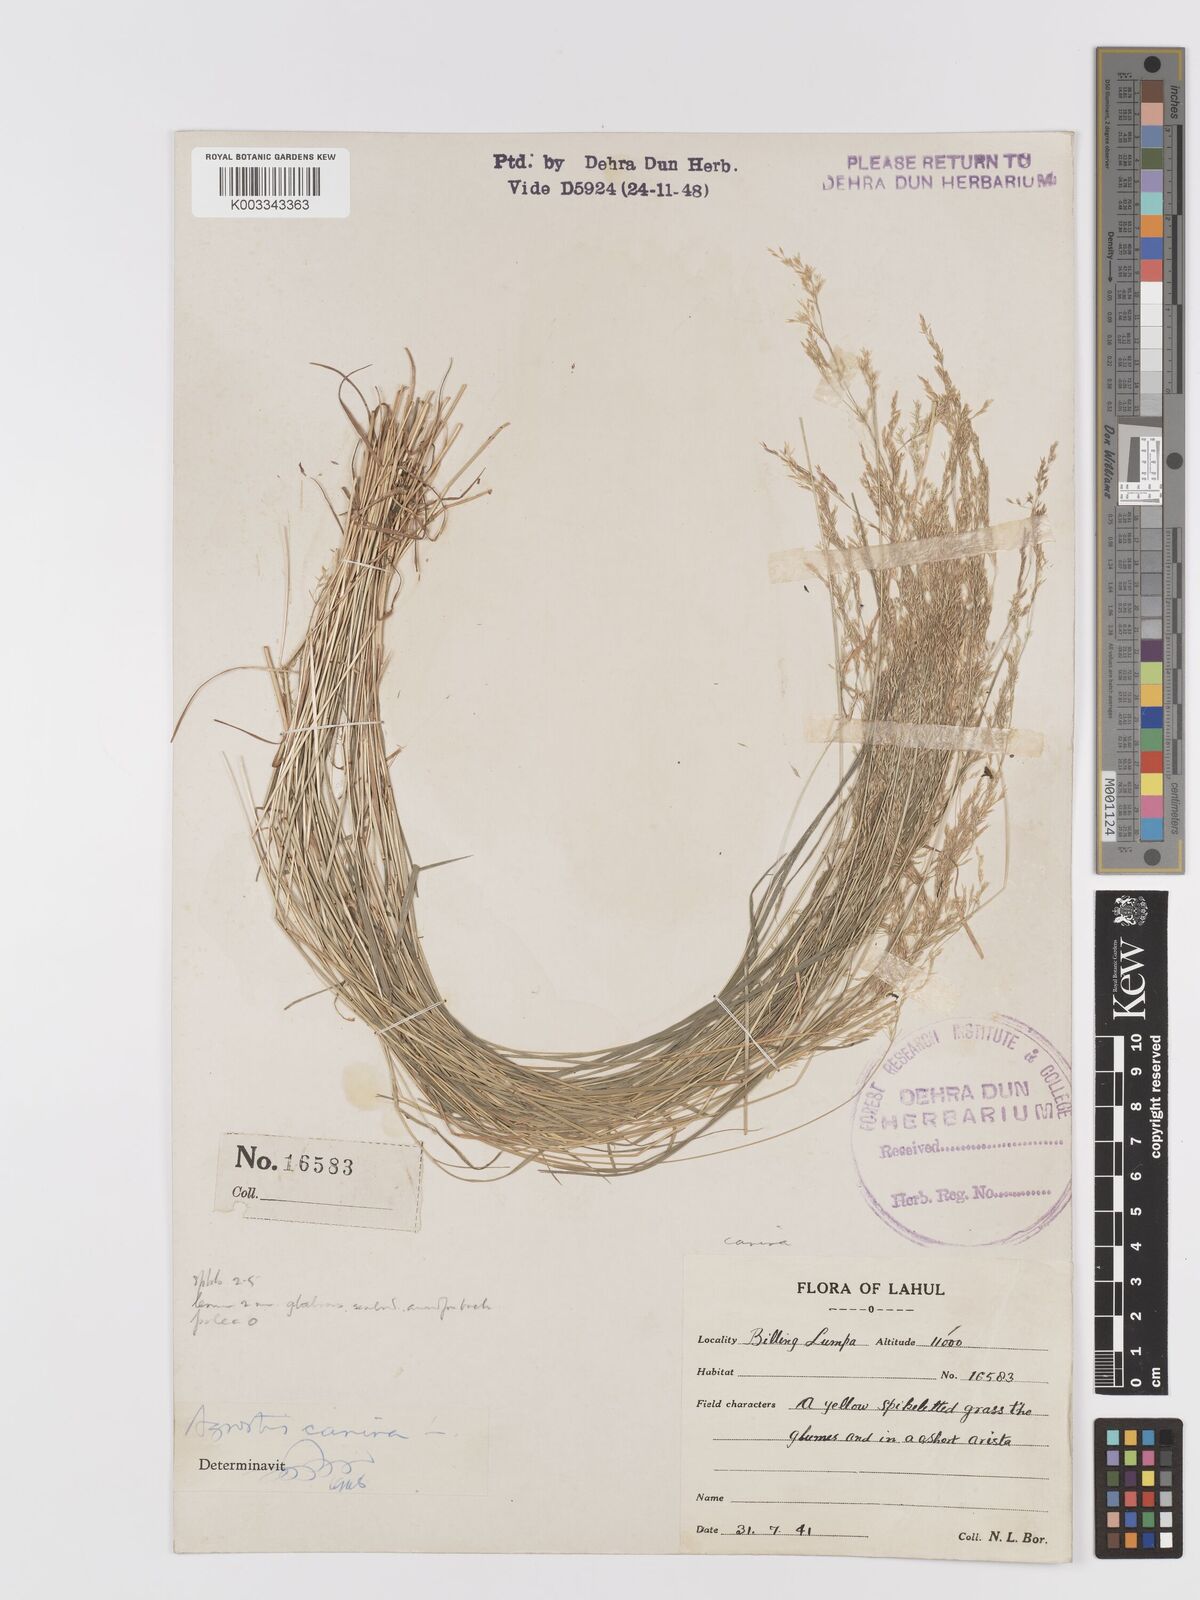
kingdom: Plantae
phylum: Tracheophyta
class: Liliopsida
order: Poales
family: Poaceae
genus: Agrostis
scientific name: Agrostis
